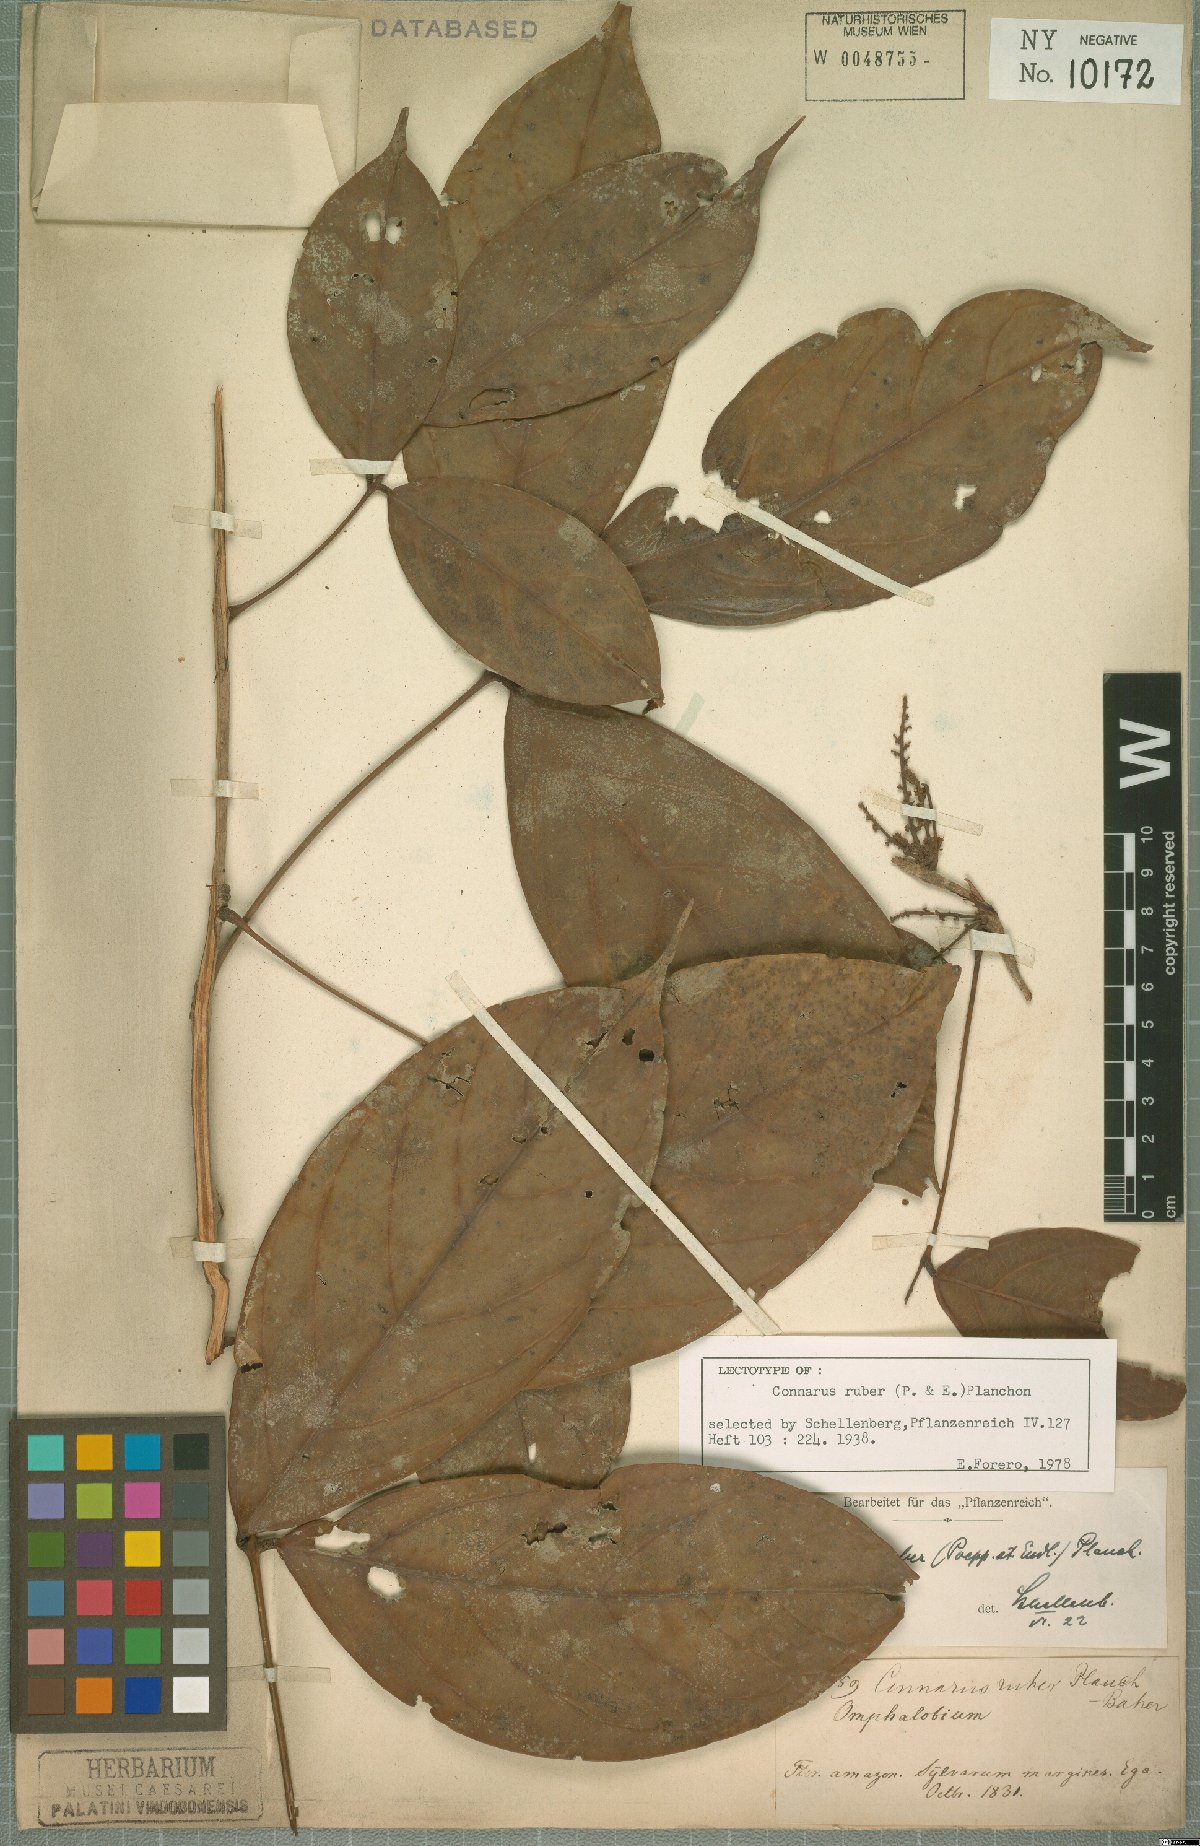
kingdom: Plantae
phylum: Tracheophyta
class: Magnoliopsida
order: Oxalidales
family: Connaraceae
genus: Connarus
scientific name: Connarus ruber
